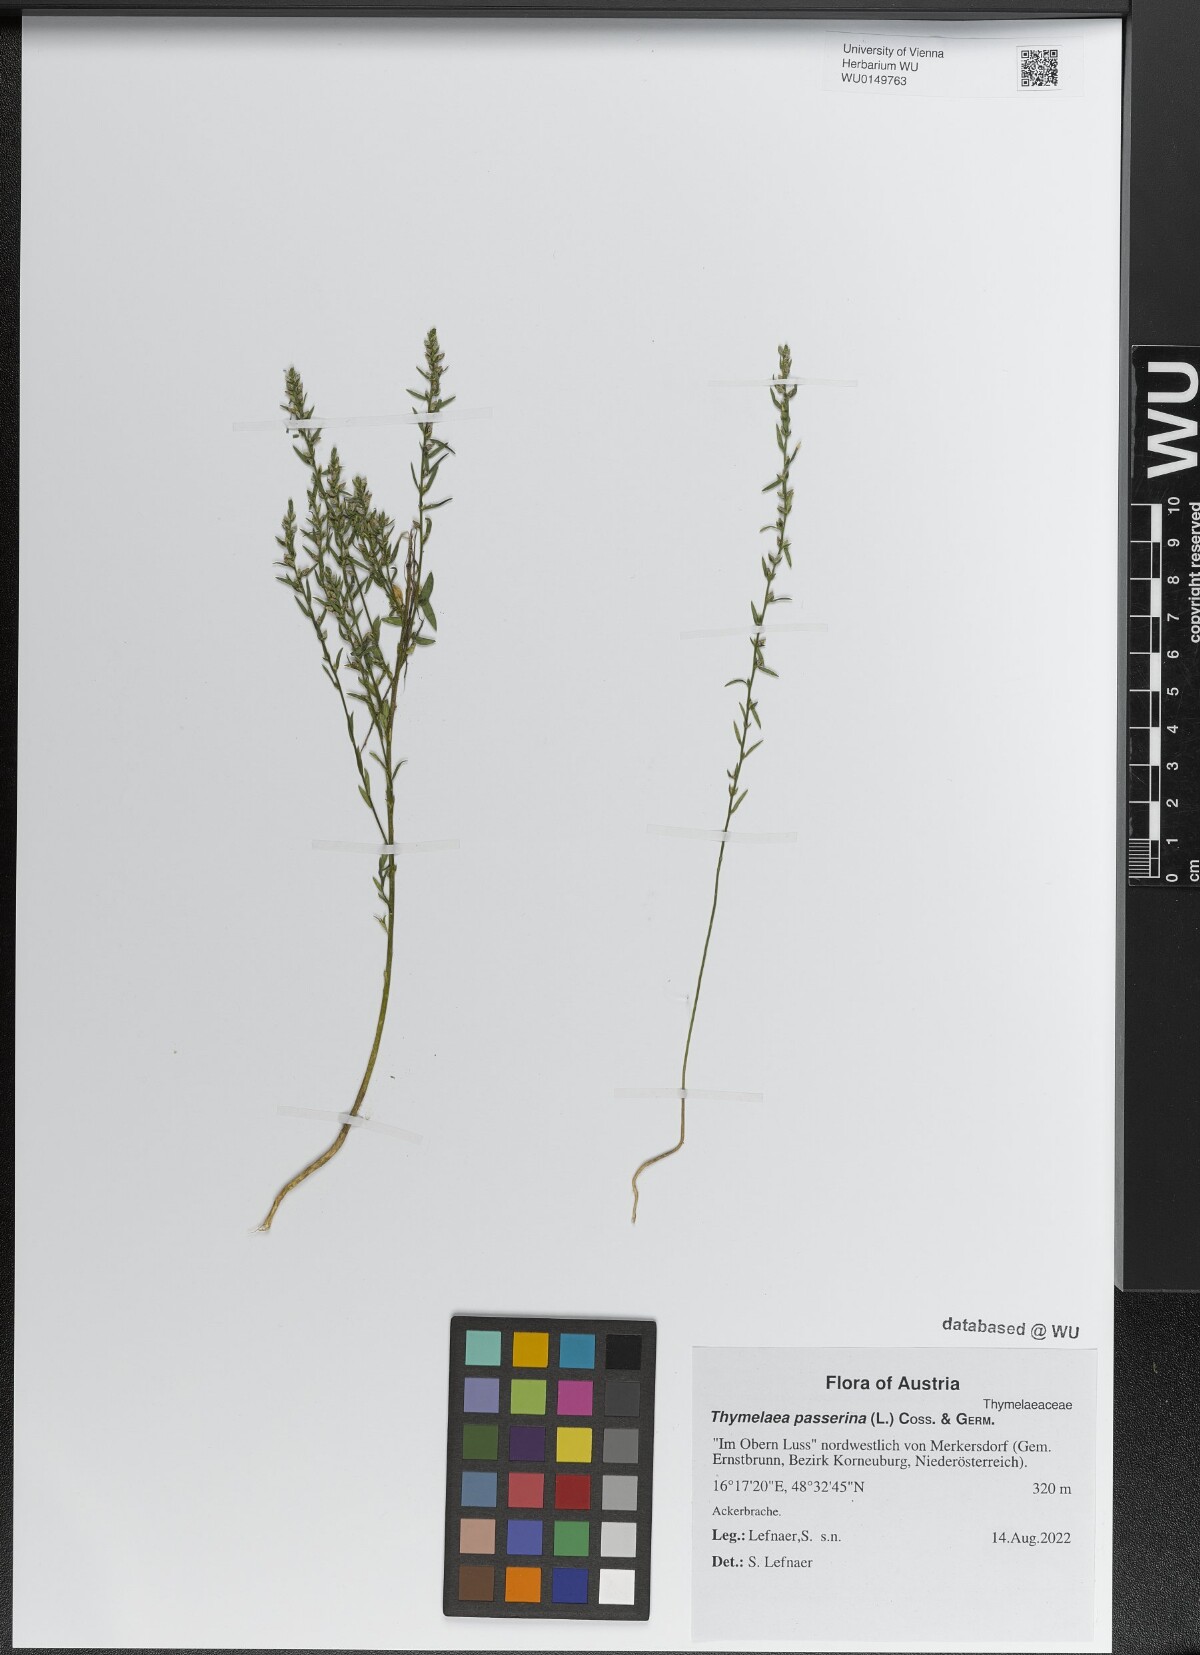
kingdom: Plantae
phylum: Tracheophyta
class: Magnoliopsida
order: Malvales
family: Thymelaeaceae
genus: Thymelaea
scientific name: Thymelaea passerina
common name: Annual thymelaea
